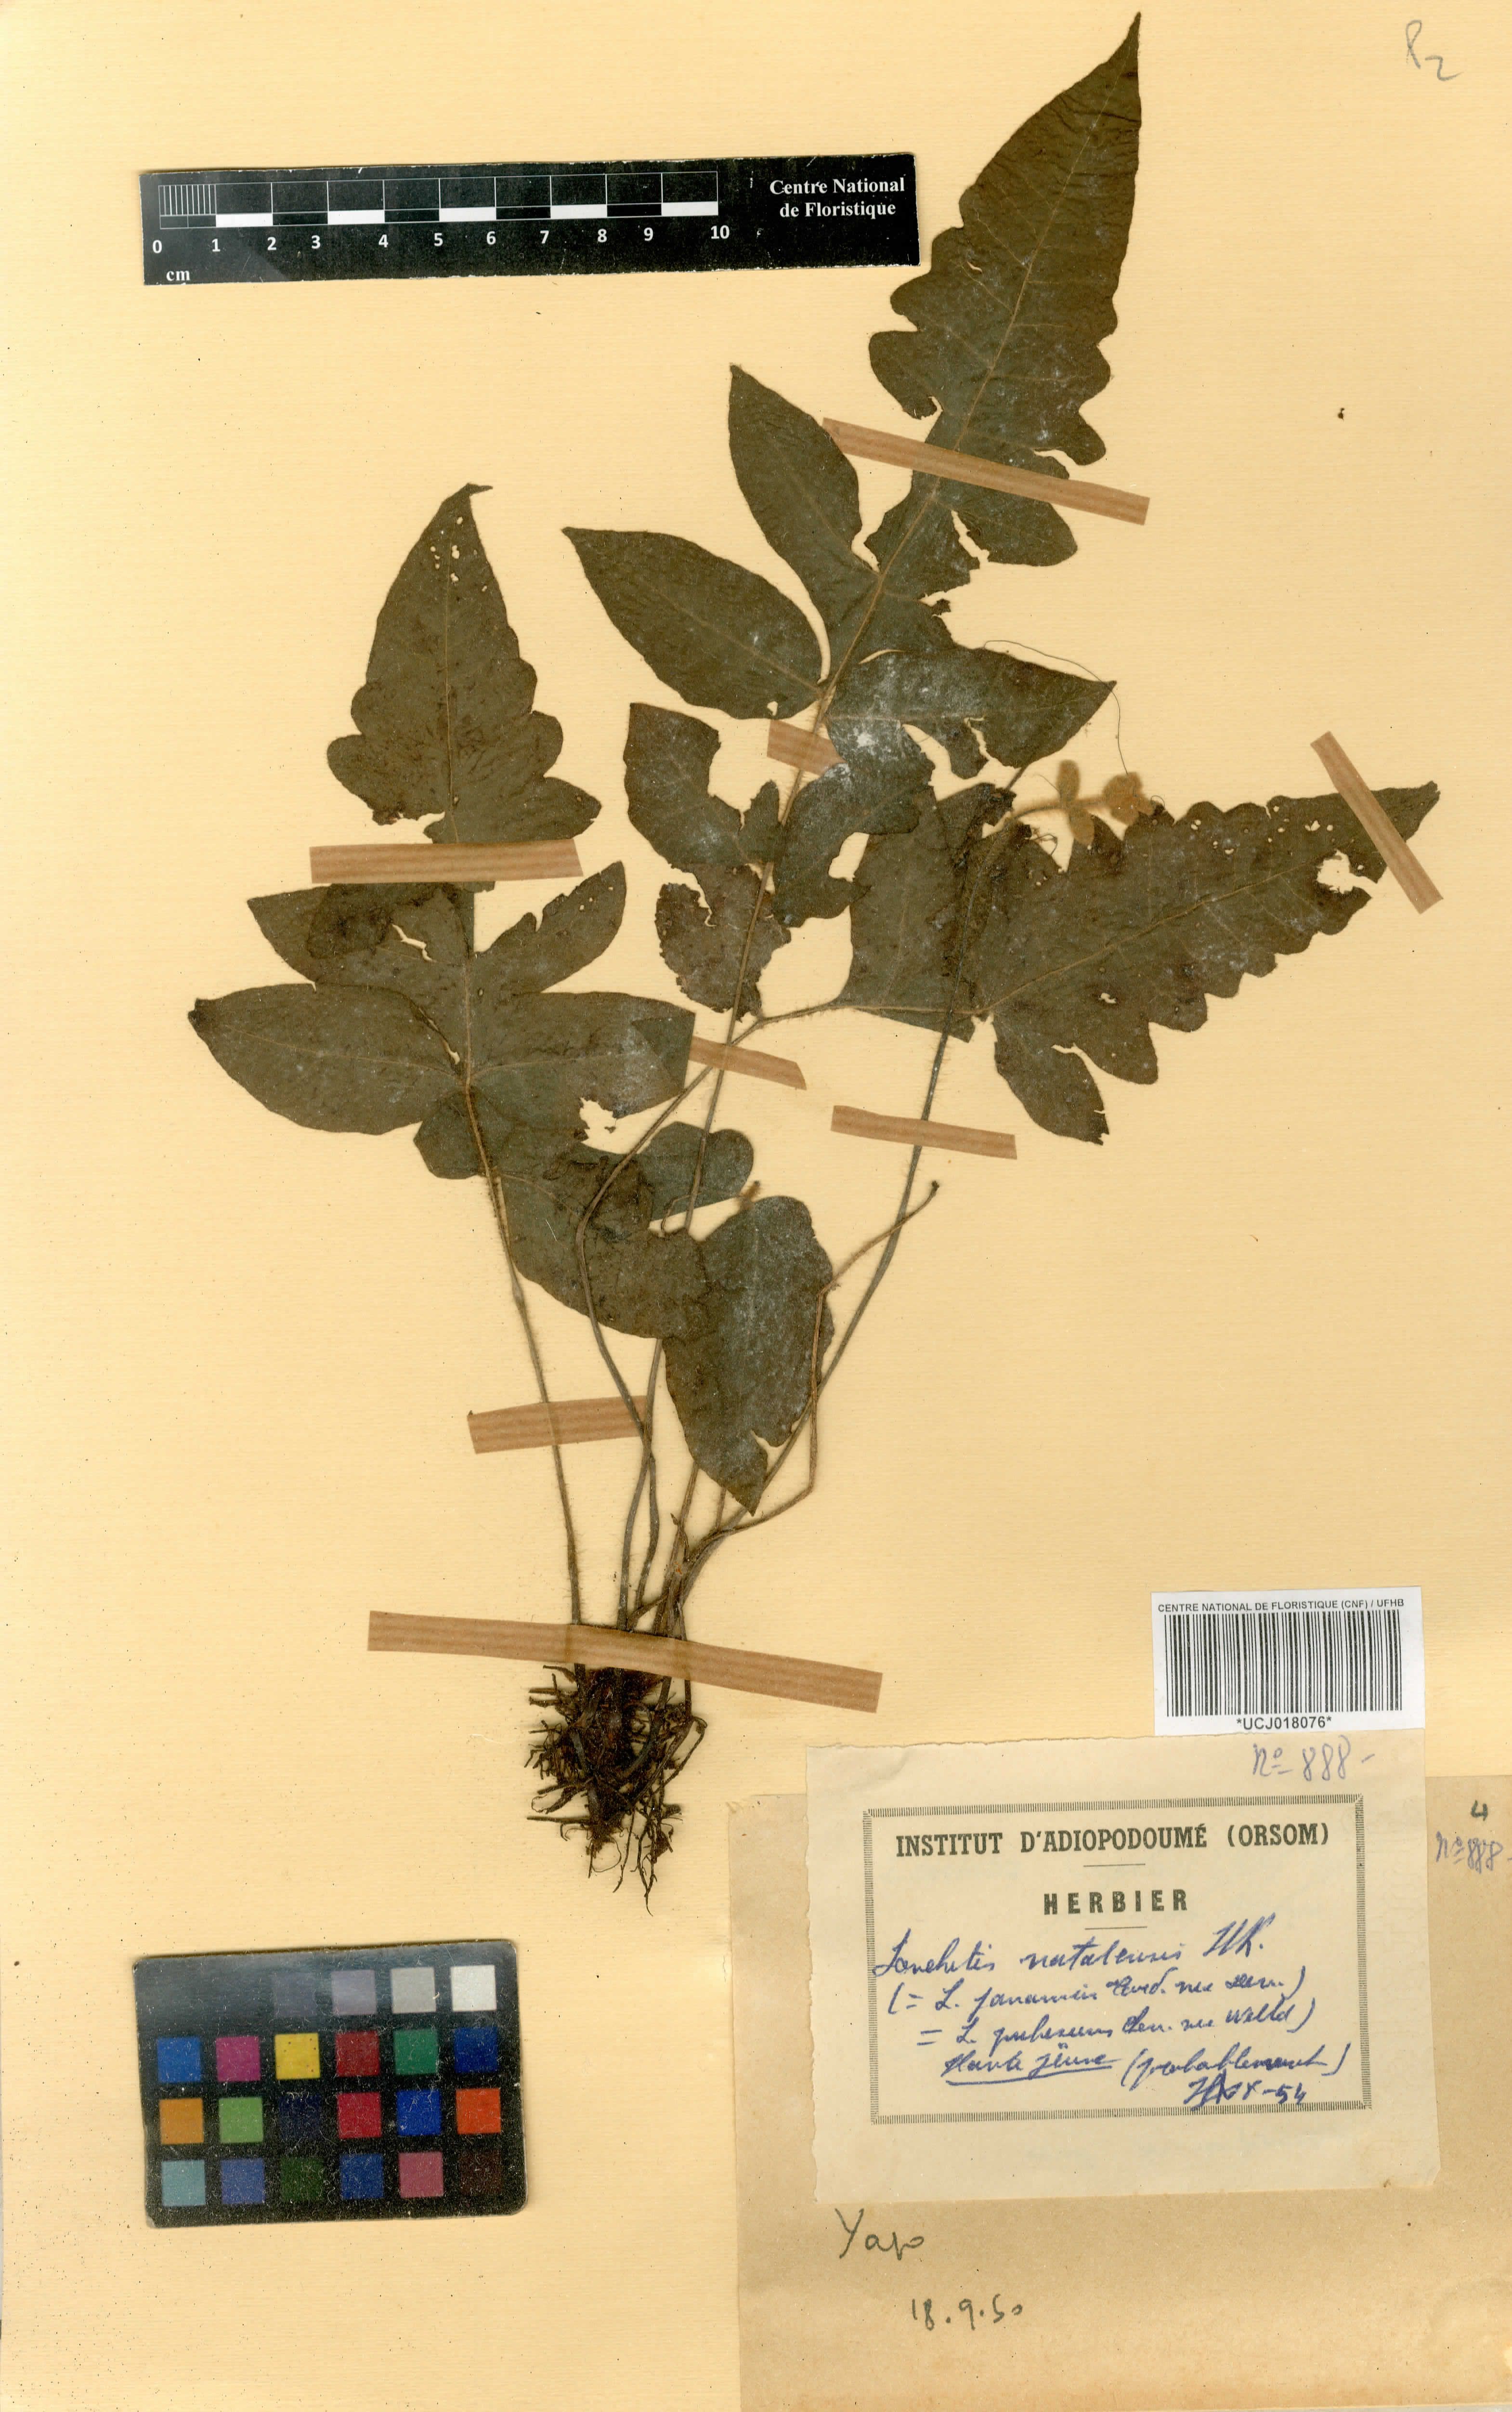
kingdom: Plantae
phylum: Tracheophyta
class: Polypodiopsida
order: Polypodiales
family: Dennstaedtiaceae
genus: Blotiella
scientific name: Blotiella natalensis
